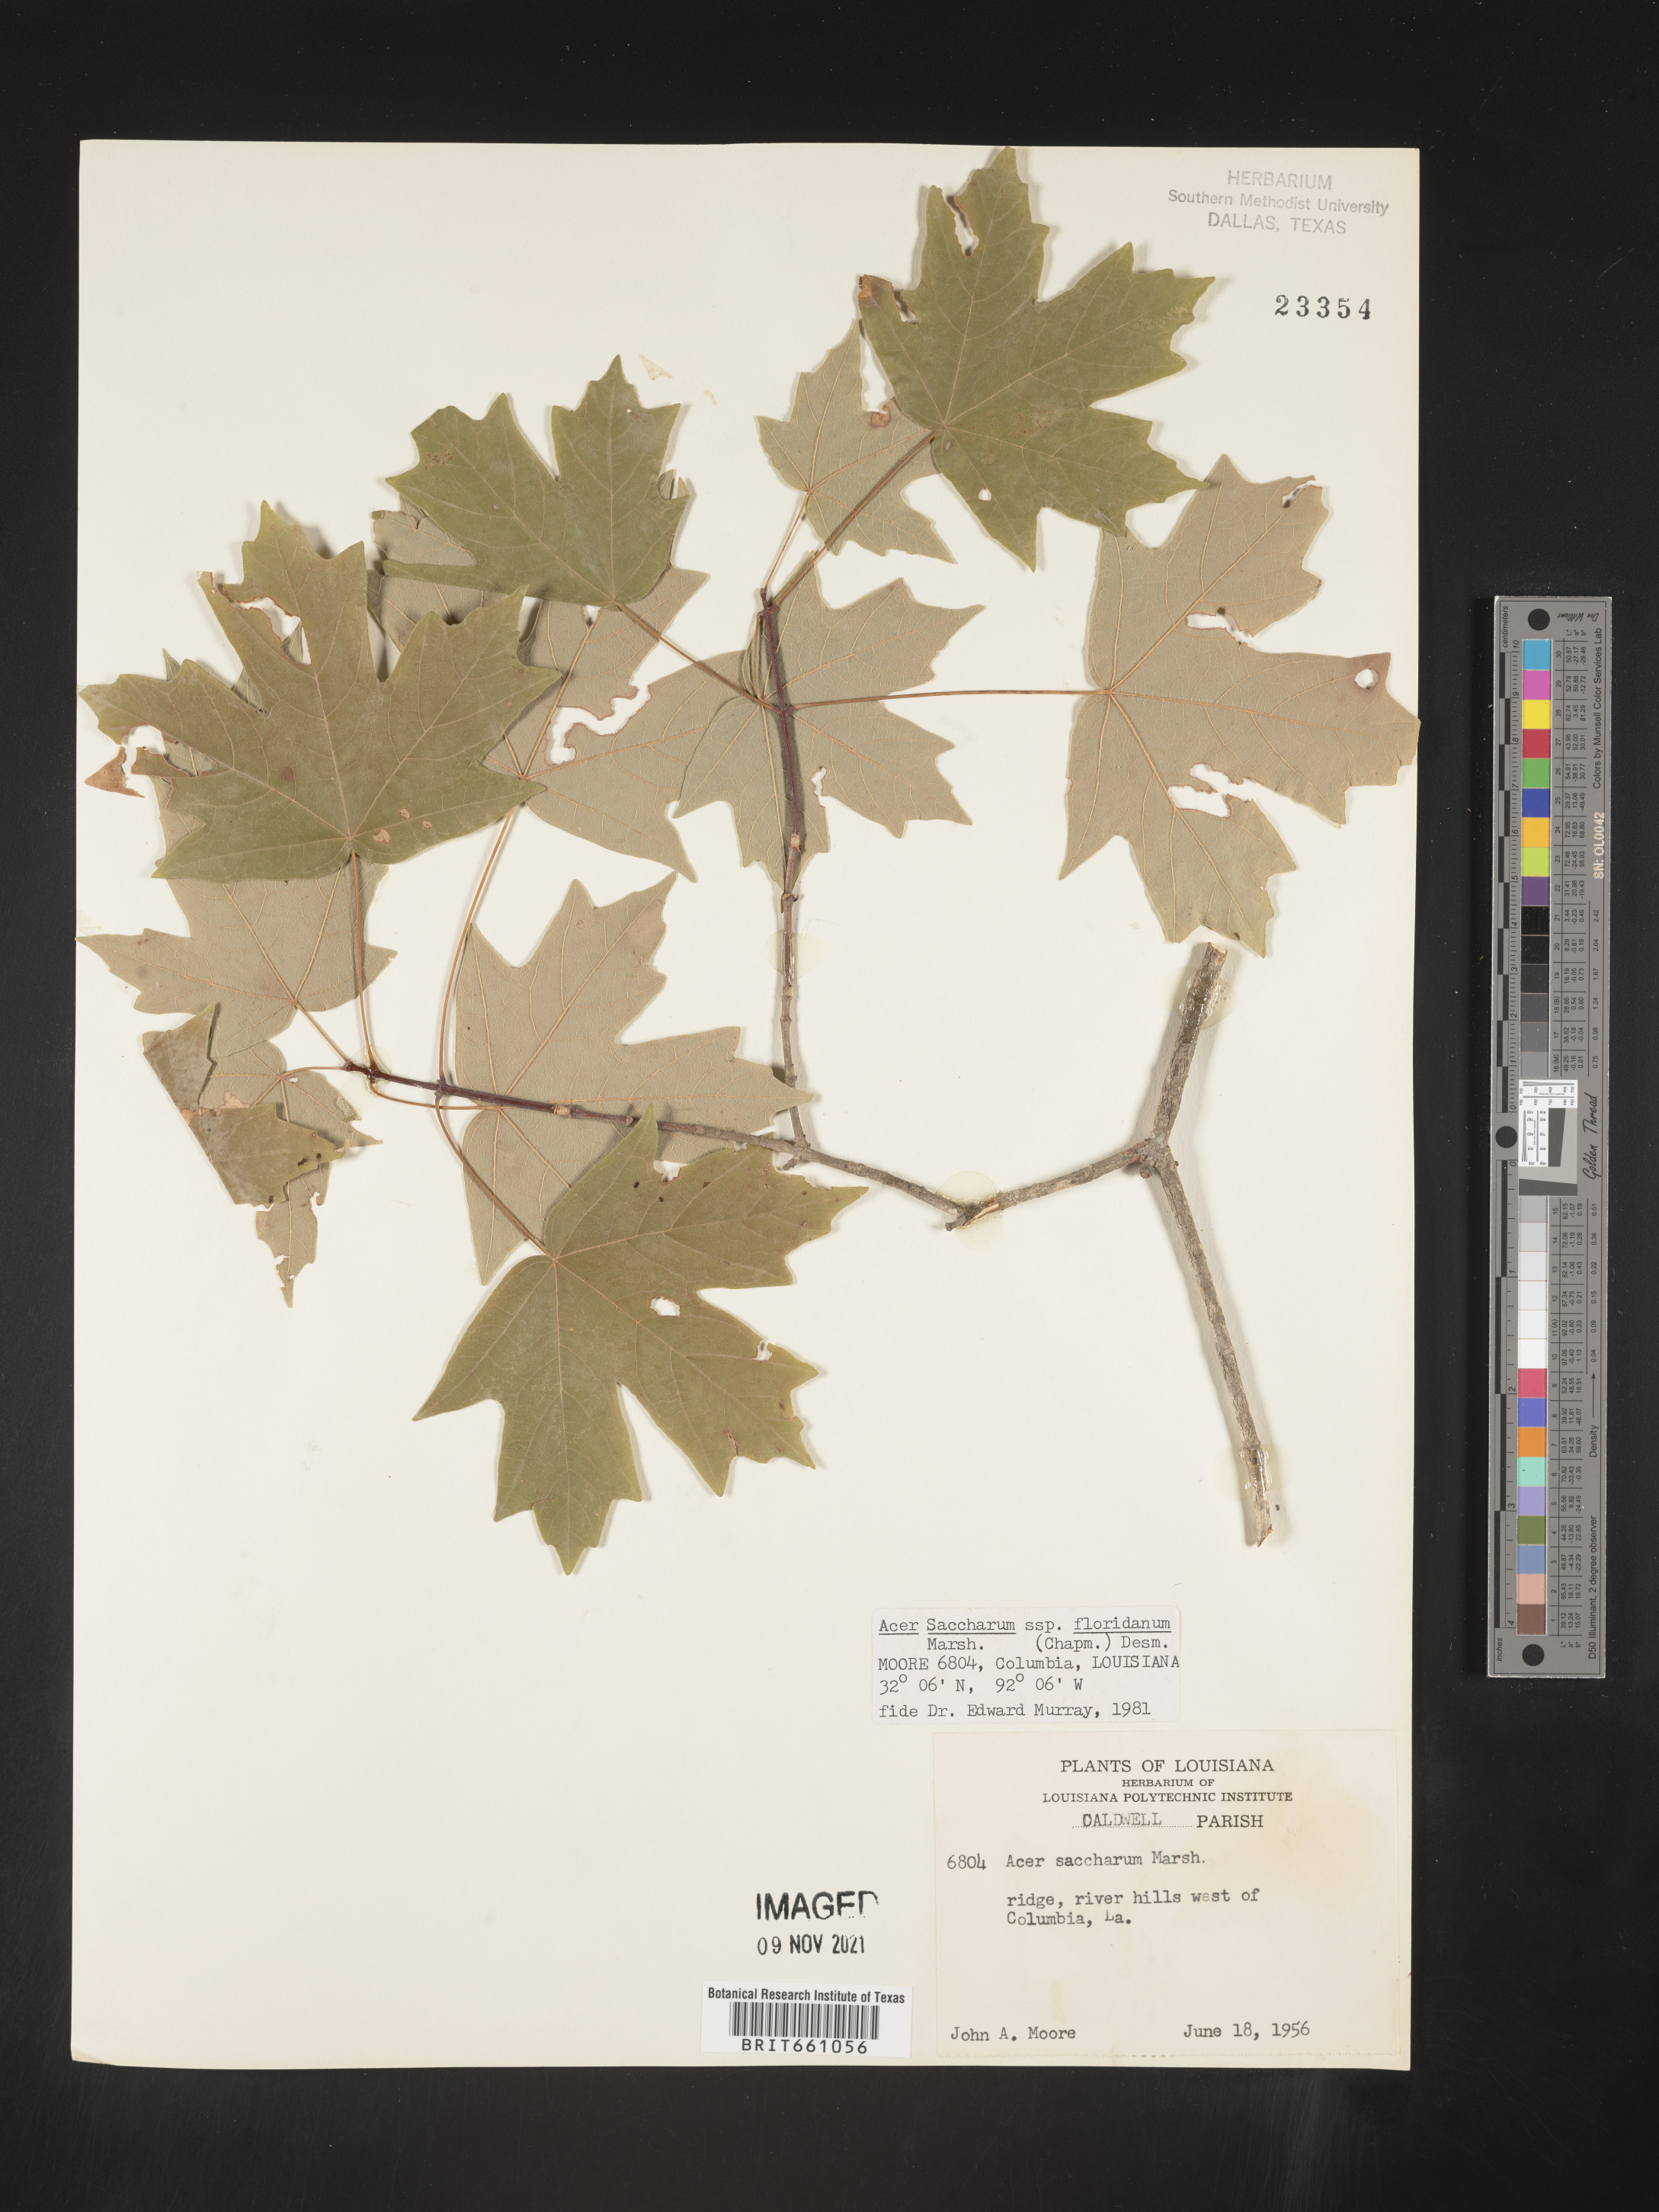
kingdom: Plantae
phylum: Tracheophyta
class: Magnoliopsida
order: Sapindales
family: Sapindaceae
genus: Acer
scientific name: Acer barbatum
